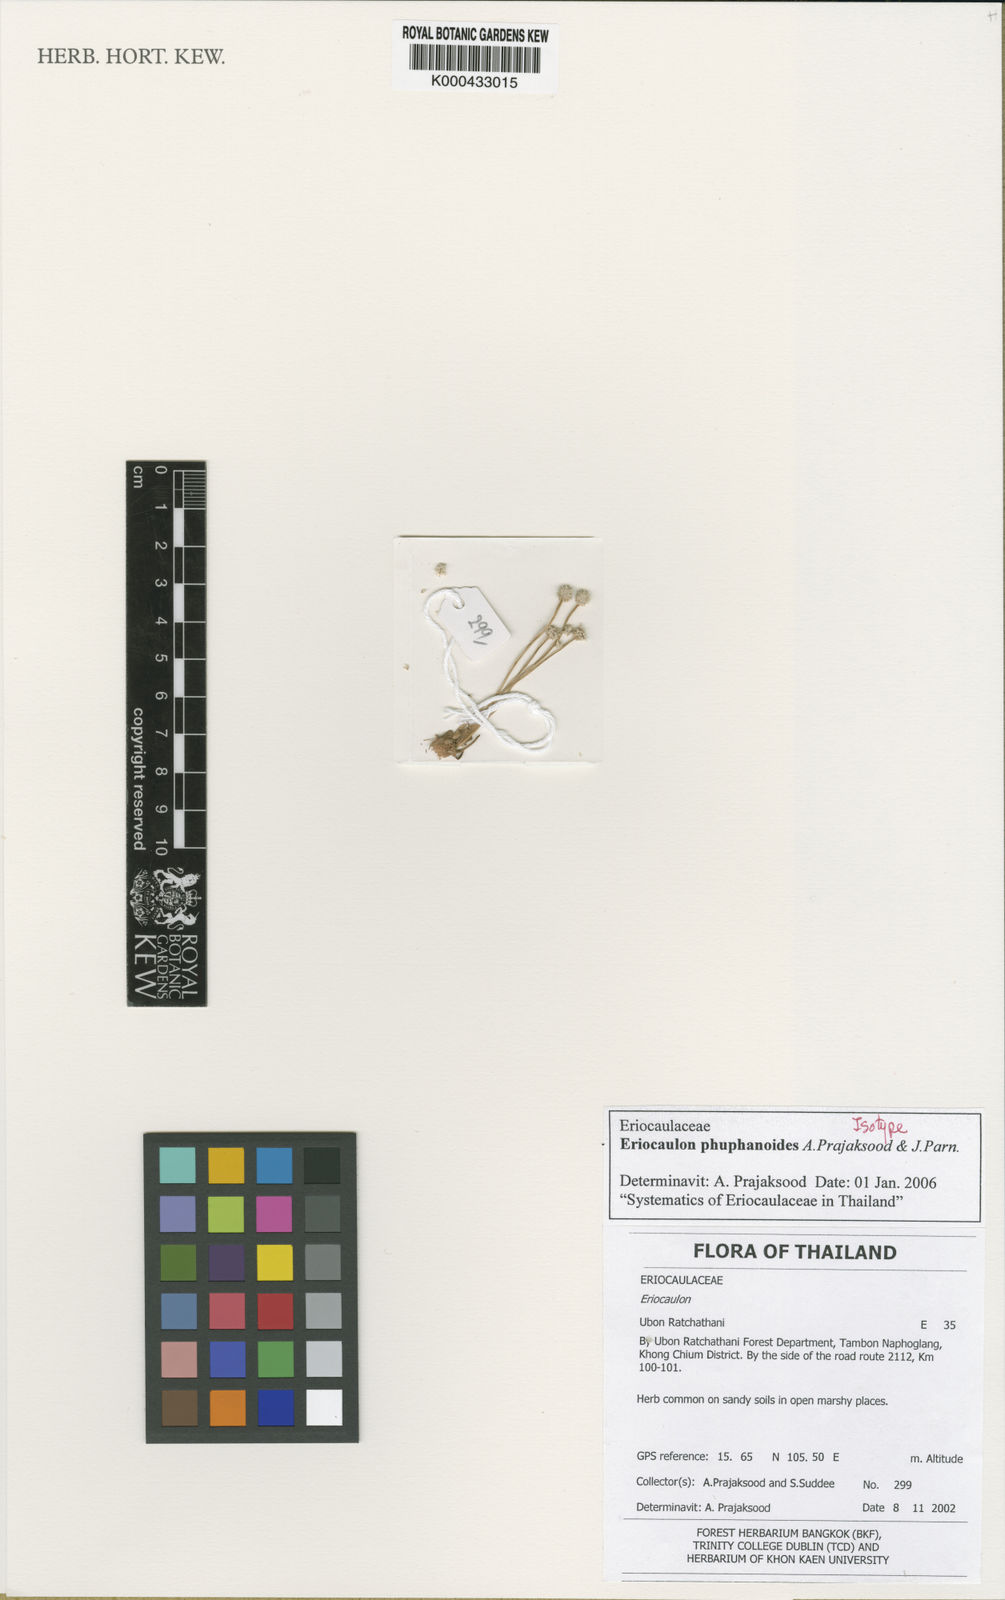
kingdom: Plantae
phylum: Tracheophyta
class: Liliopsida
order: Poales
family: Eriocaulaceae
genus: Eriocaulon
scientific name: Eriocaulon phuphanoides
